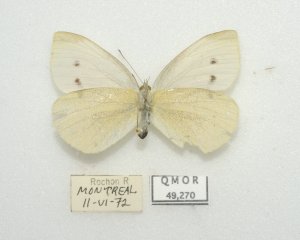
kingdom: Animalia
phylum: Arthropoda
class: Insecta
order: Lepidoptera
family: Pieridae
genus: Pieris
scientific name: Pieris rapae
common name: Cabbage White
